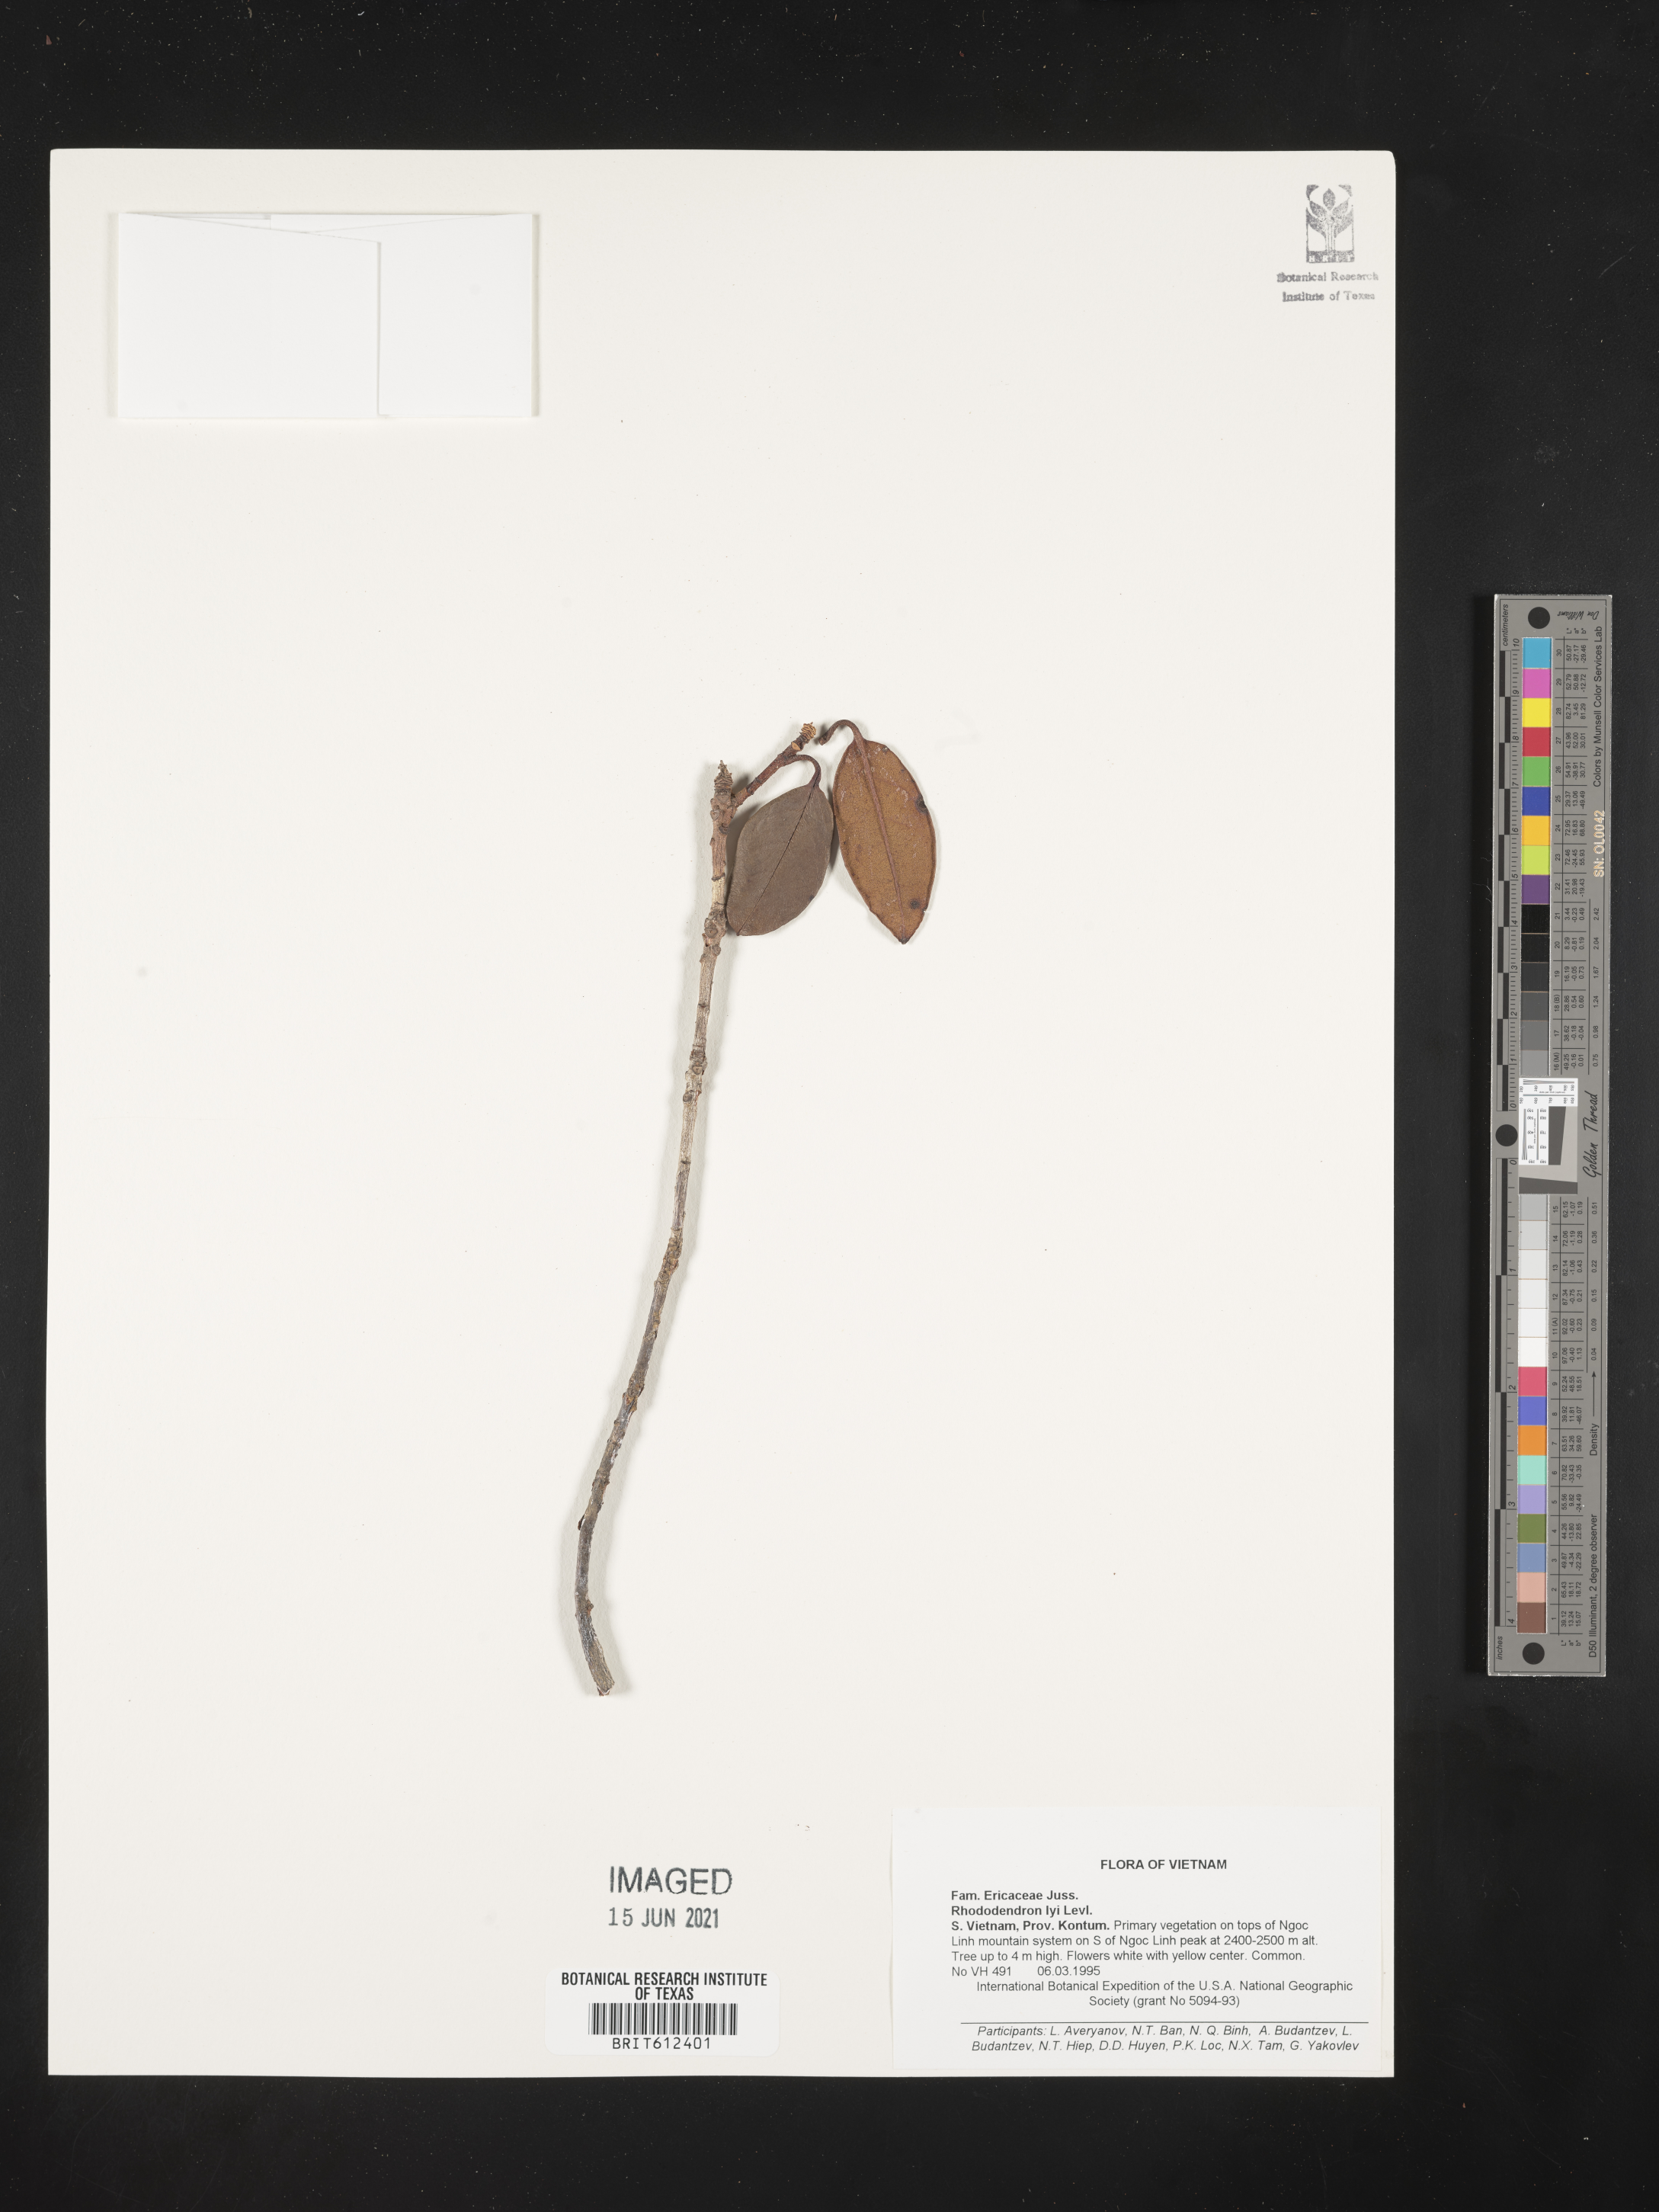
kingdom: Plantae
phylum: Tracheophyta
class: Magnoliopsida
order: Ericales
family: Ericaceae
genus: Rhododendron
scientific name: Rhododendron ciliicalyx
